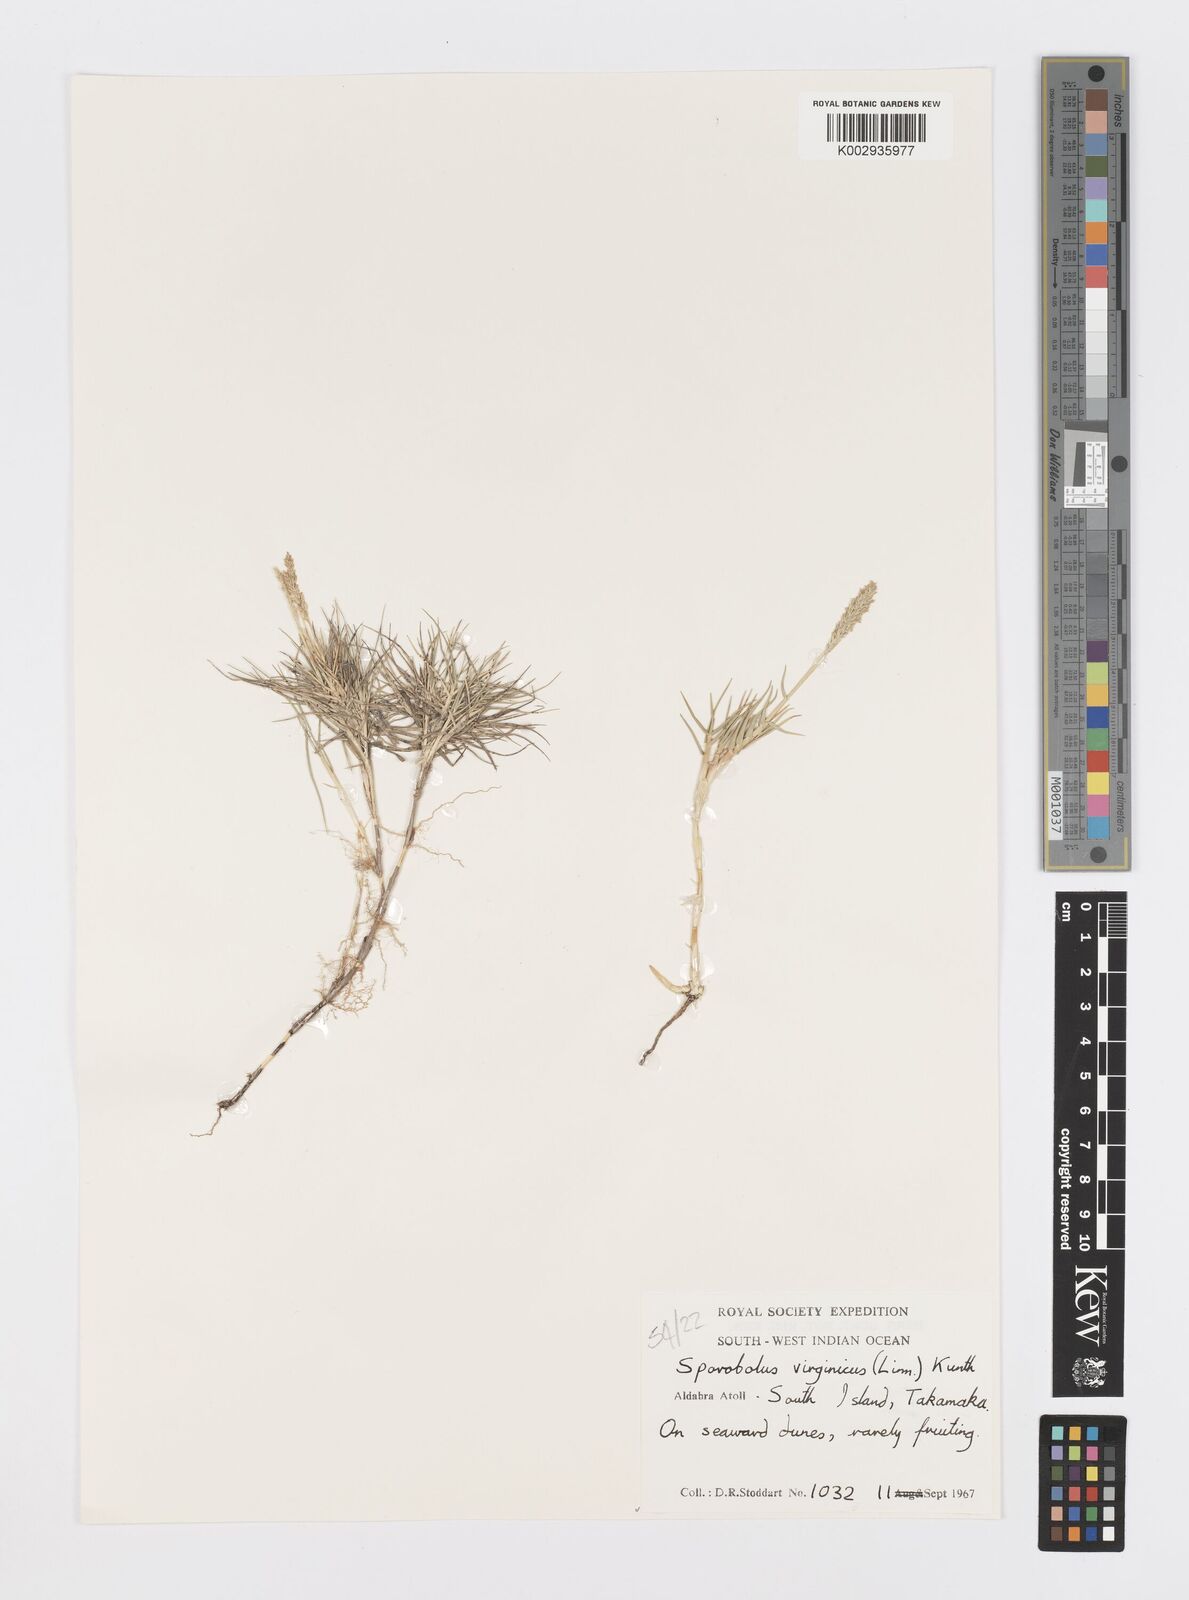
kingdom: Plantae
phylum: Tracheophyta
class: Liliopsida
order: Poales
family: Poaceae
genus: Sporobolus
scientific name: Sporobolus virginicus
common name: Beach dropseed
